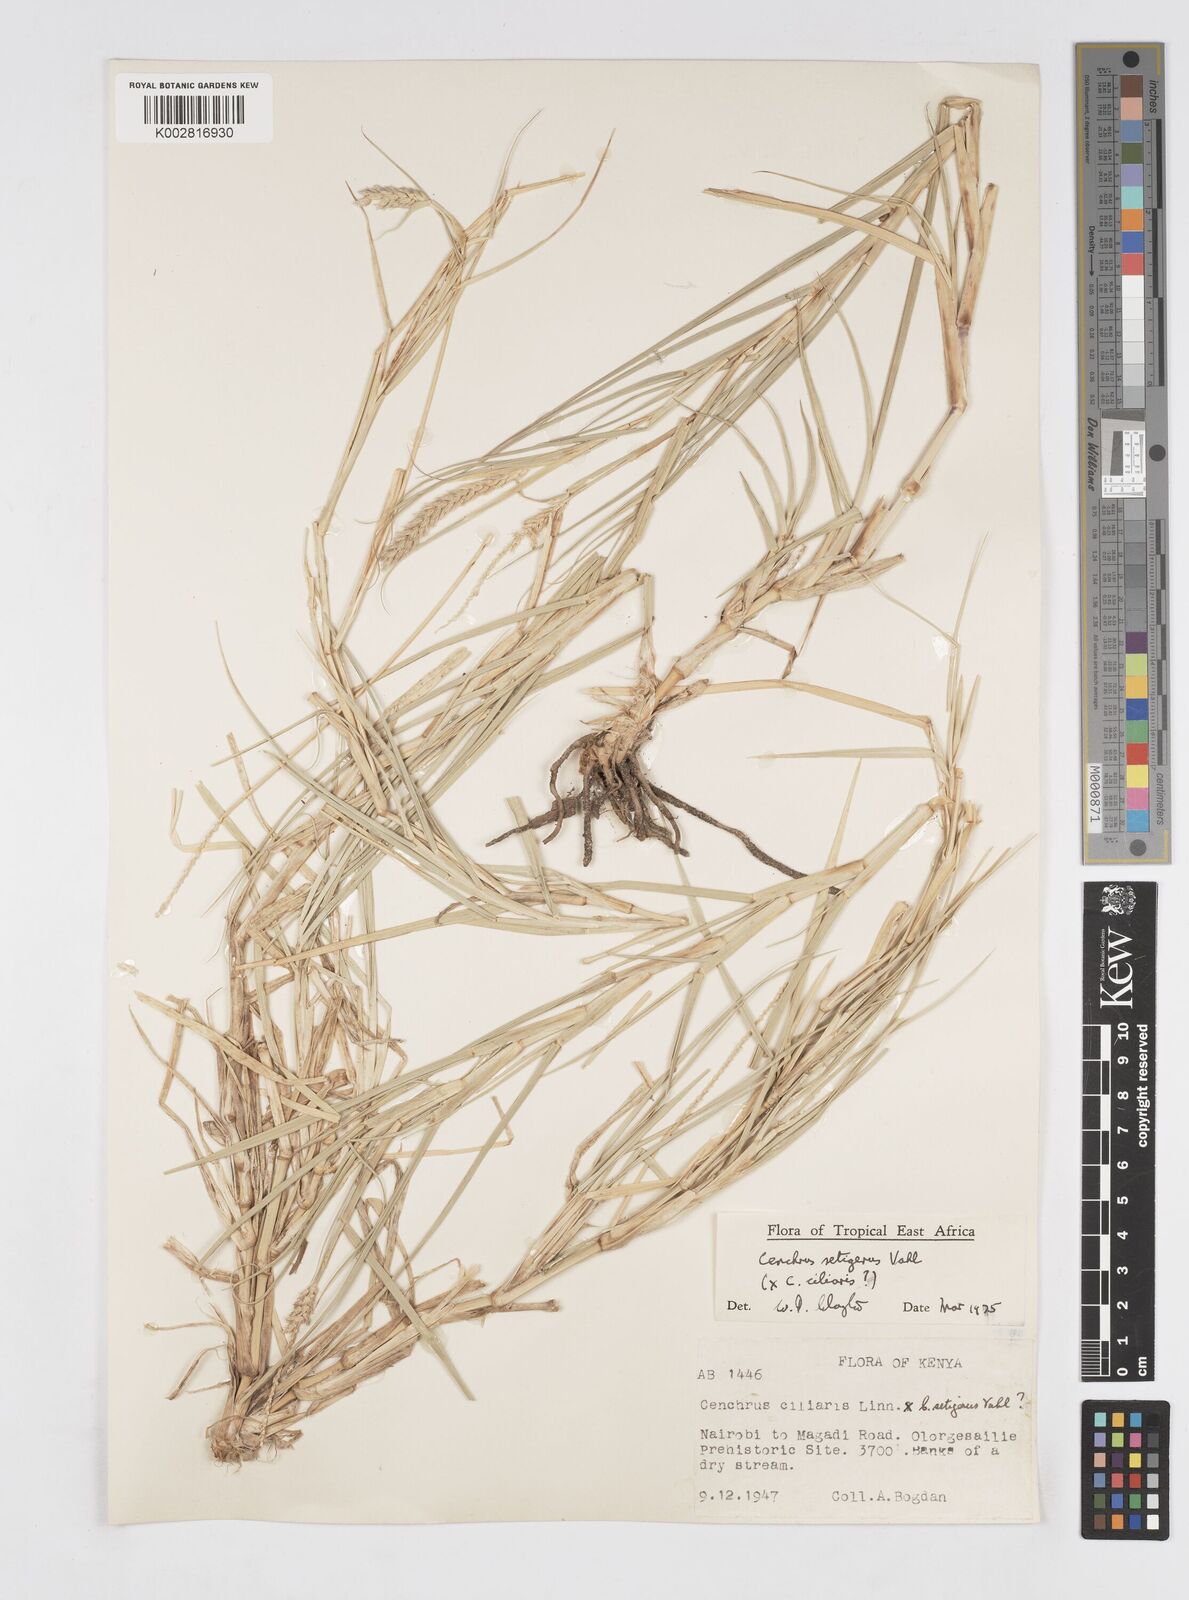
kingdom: Plantae
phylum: Tracheophyta
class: Liliopsida
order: Poales
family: Poaceae
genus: Cenchrus
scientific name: Cenchrus setigerus
